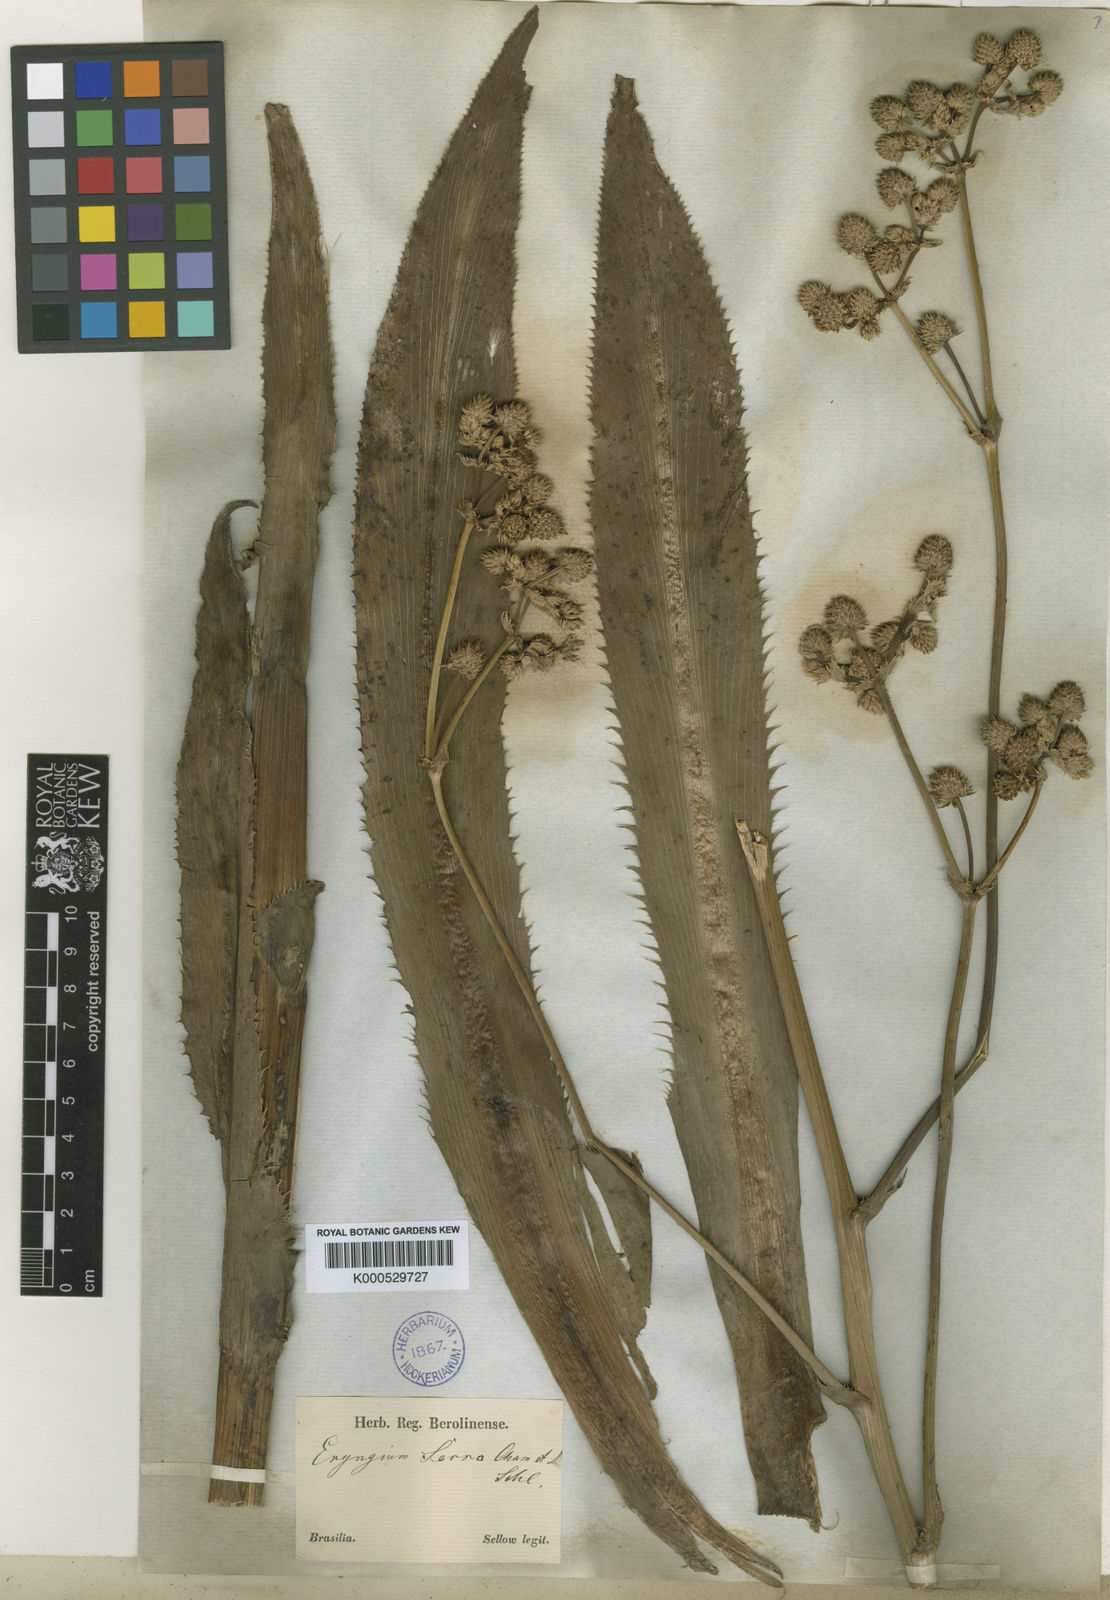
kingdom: Plantae
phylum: Tracheophyta
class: Magnoliopsida
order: Apiales
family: Apiaceae
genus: Eryngium
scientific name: Eryngium serra
